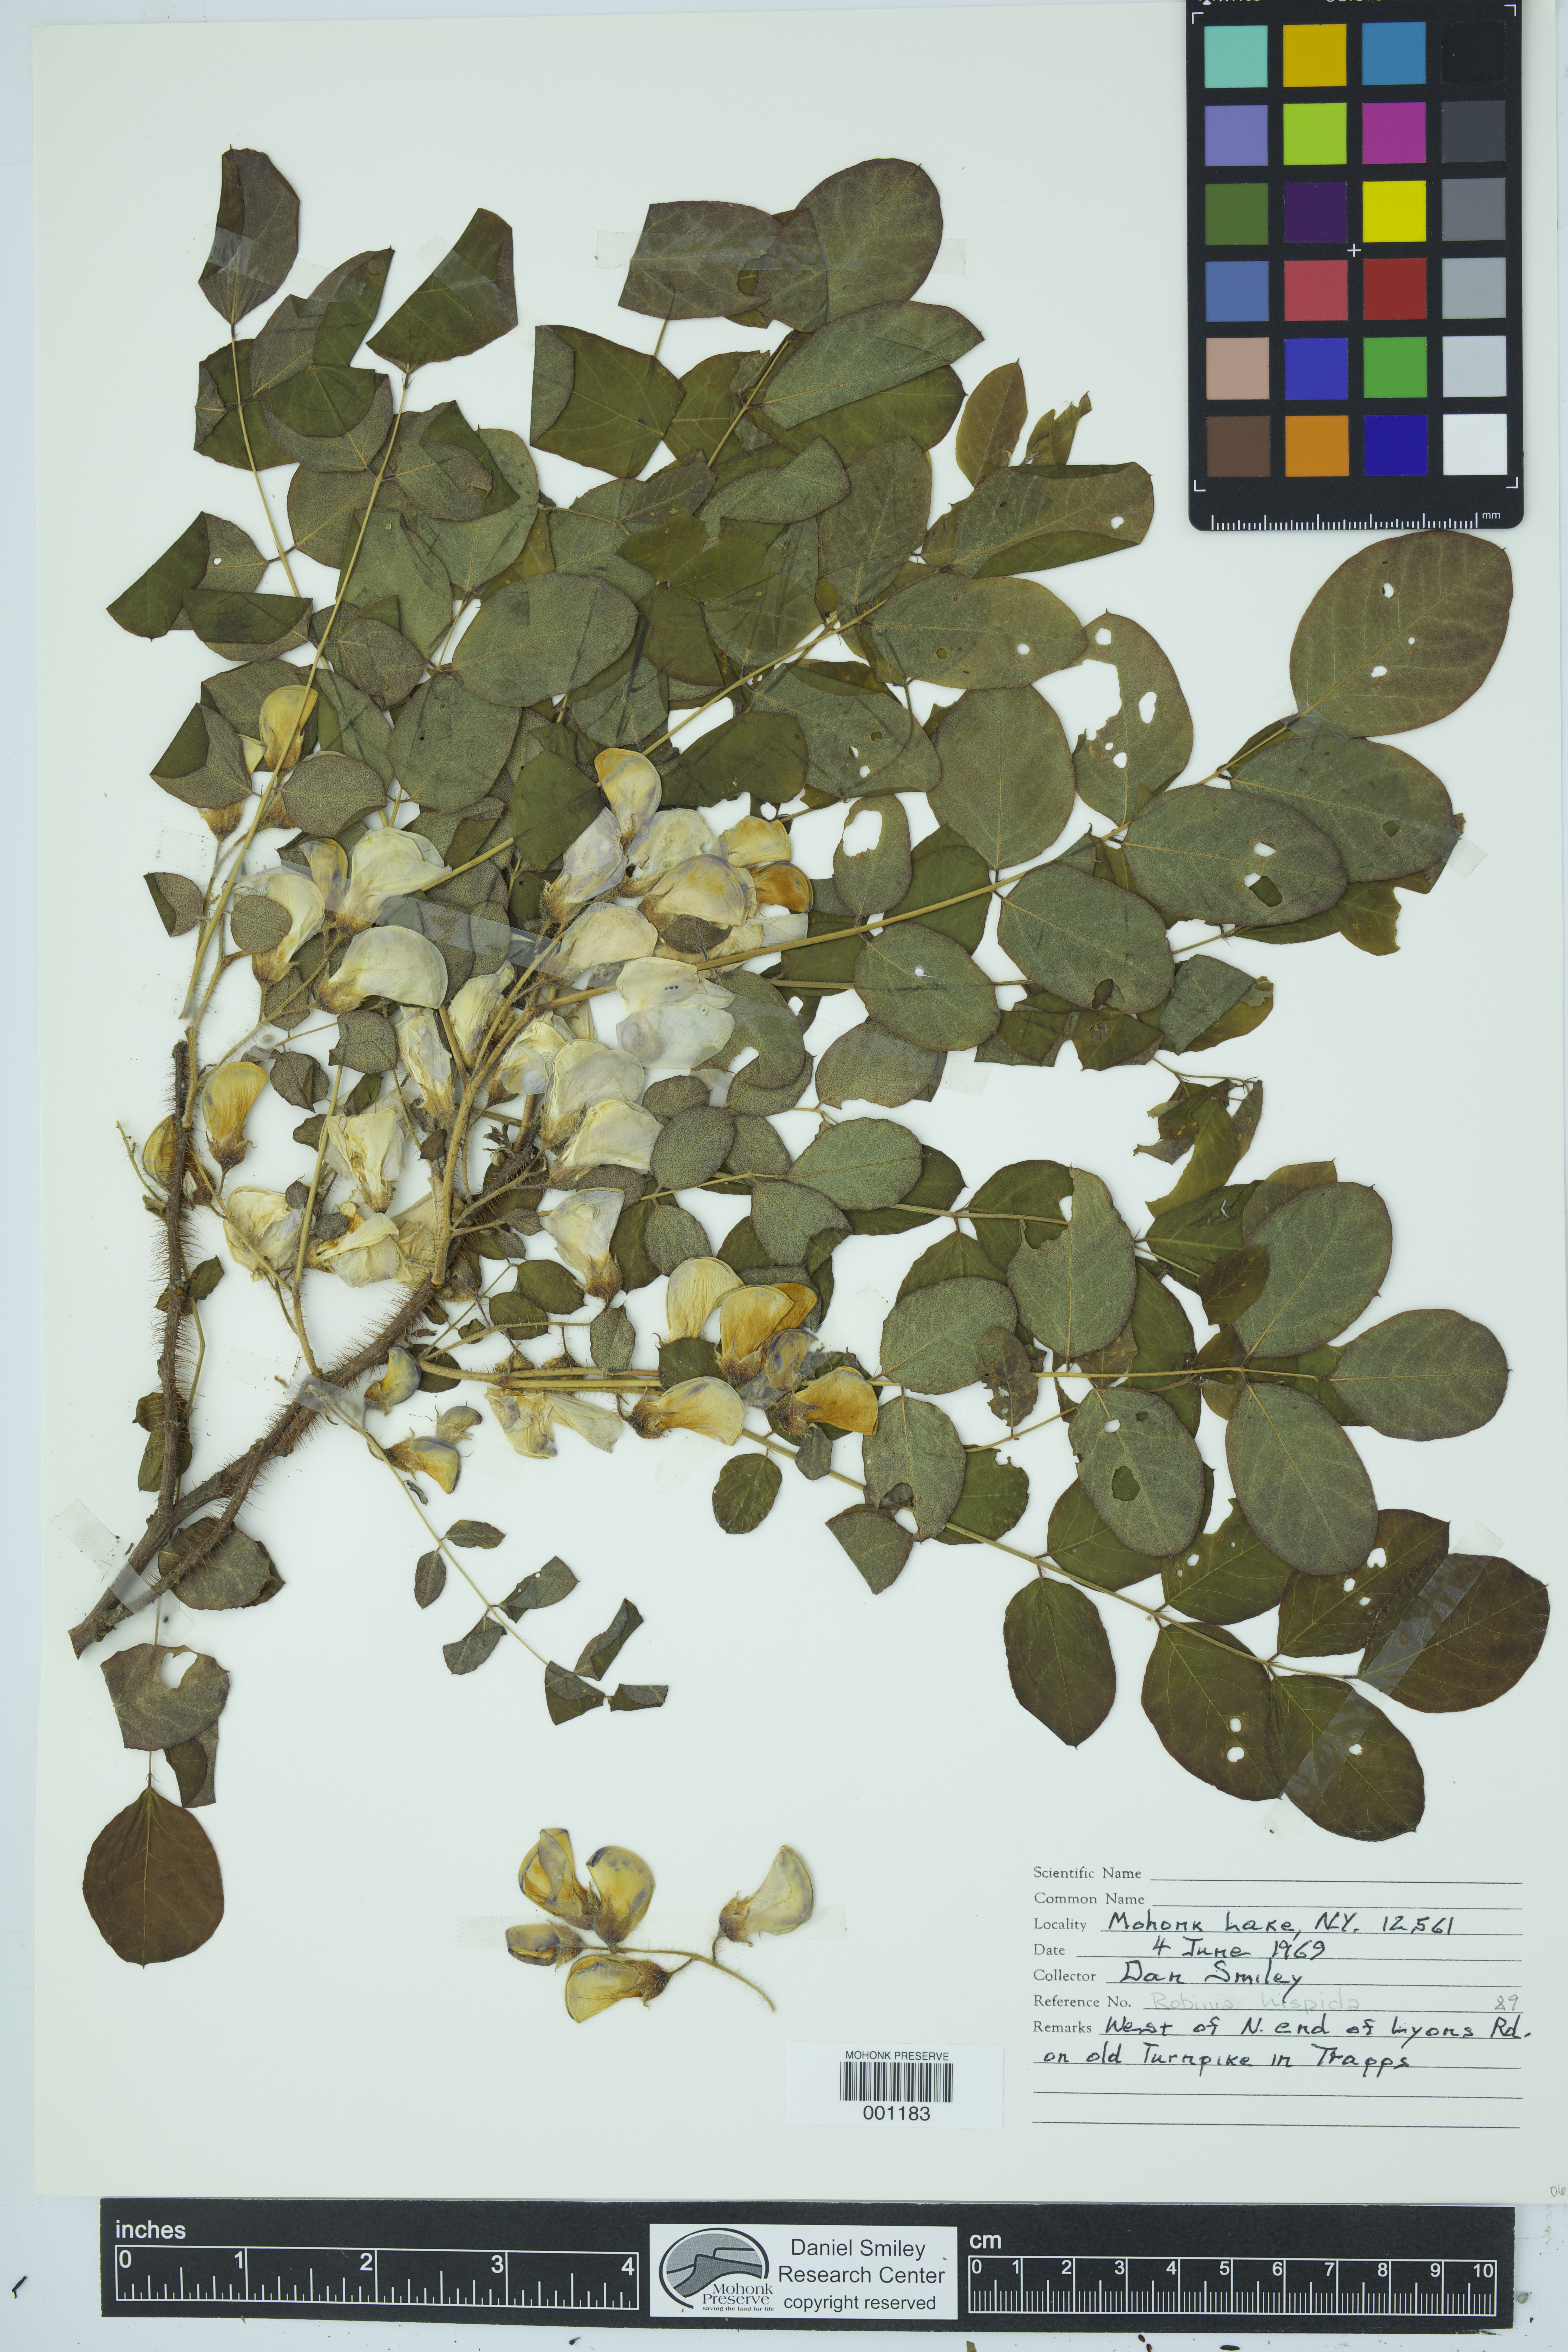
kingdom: Plantae
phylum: Tracheophyta
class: Magnoliopsida
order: Fabales
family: Fabaceae
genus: Robinia
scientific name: Robinia hispida
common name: Bristly locust
